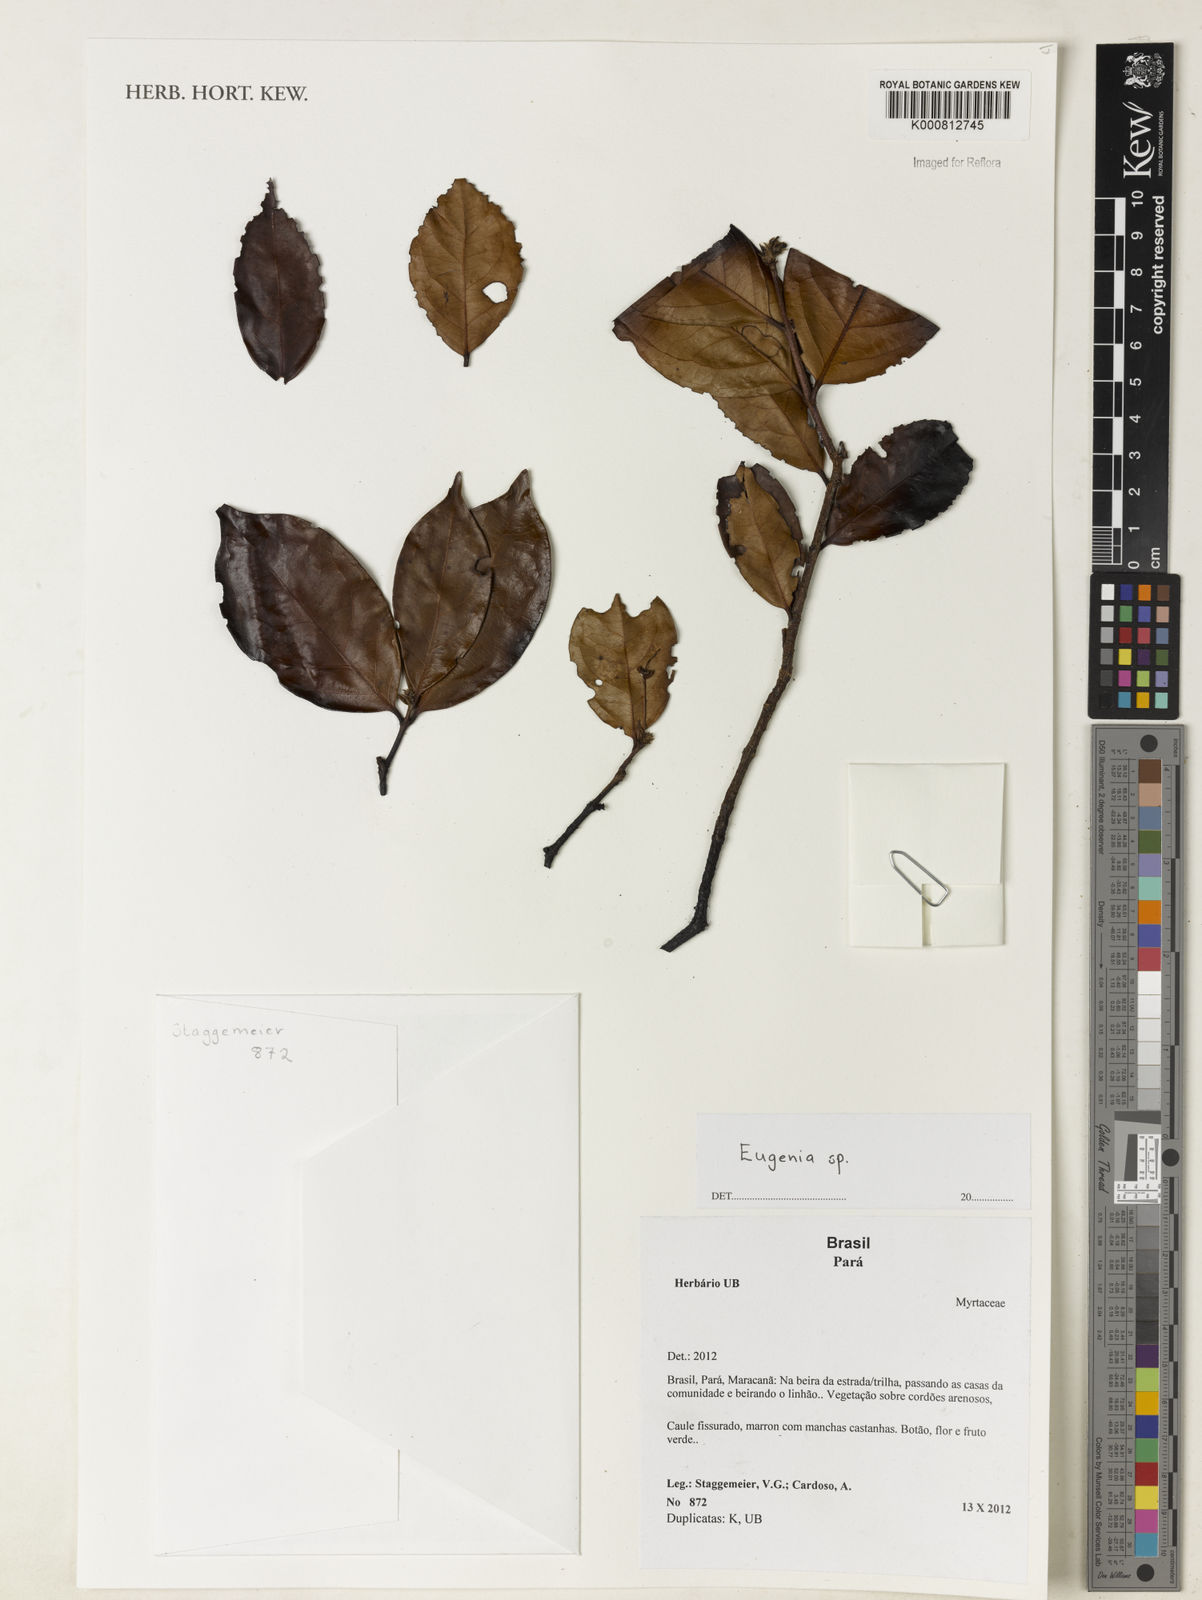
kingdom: Plantae
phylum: Tracheophyta
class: Magnoliopsida
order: Myrtales
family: Myrtaceae
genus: Eugenia
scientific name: Eugenia
